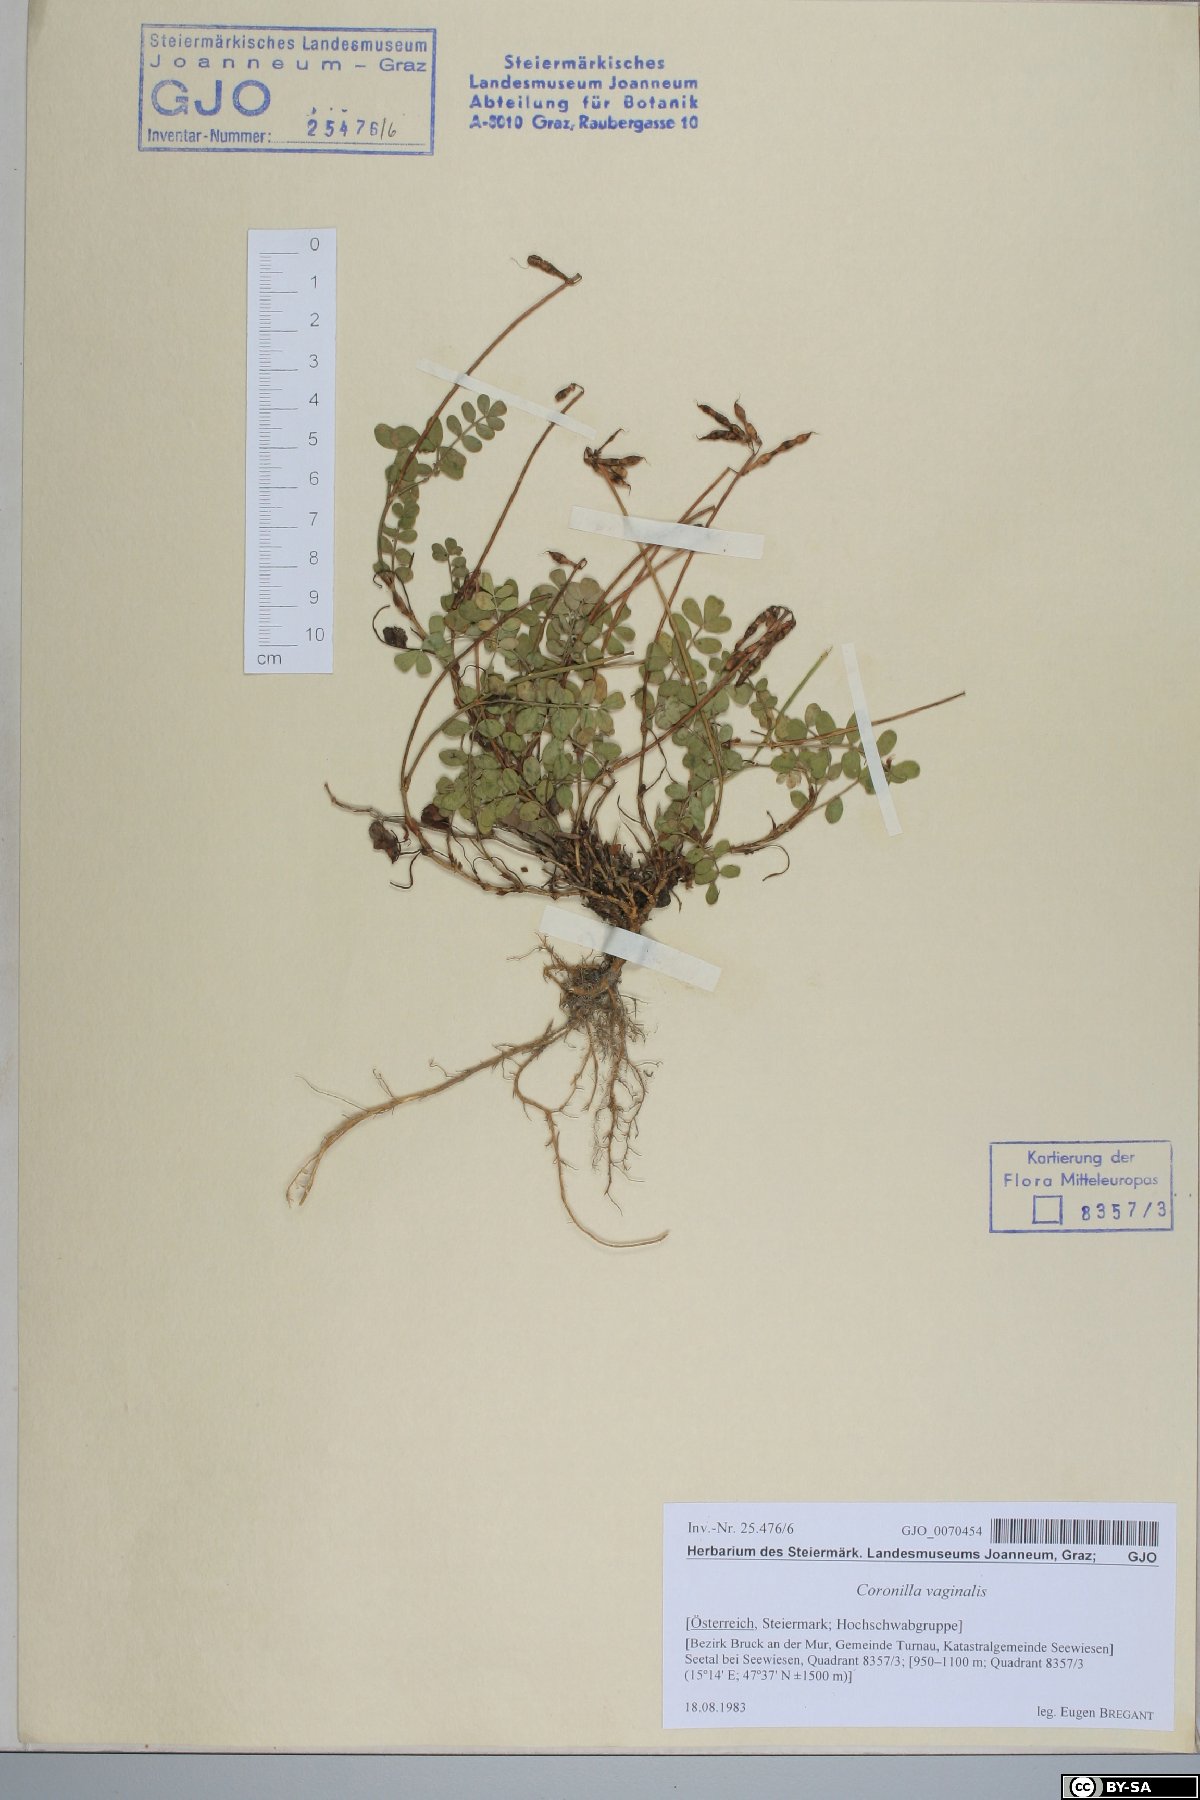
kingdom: Plantae
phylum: Tracheophyta
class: Magnoliopsida
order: Fabales
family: Fabaceae
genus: Coronilla
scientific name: Coronilla vaginalis
